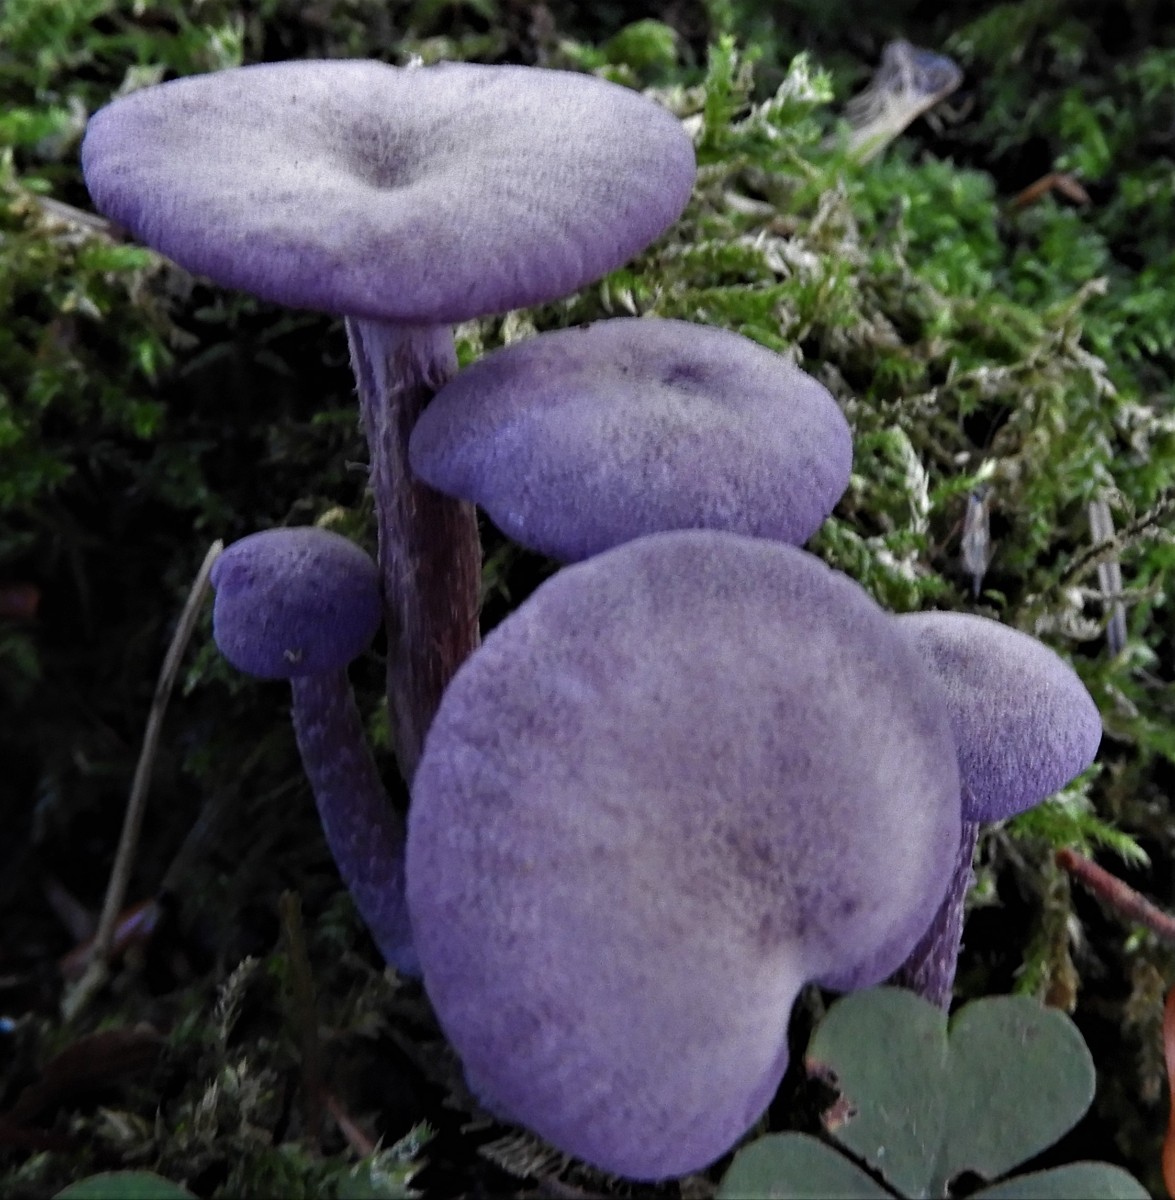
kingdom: Fungi
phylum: Basidiomycota
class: Agaricomycetes
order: Agaricales
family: Hydnangiaceae
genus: Laccaria
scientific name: Laccaria amethystina
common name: violet ametysthat
